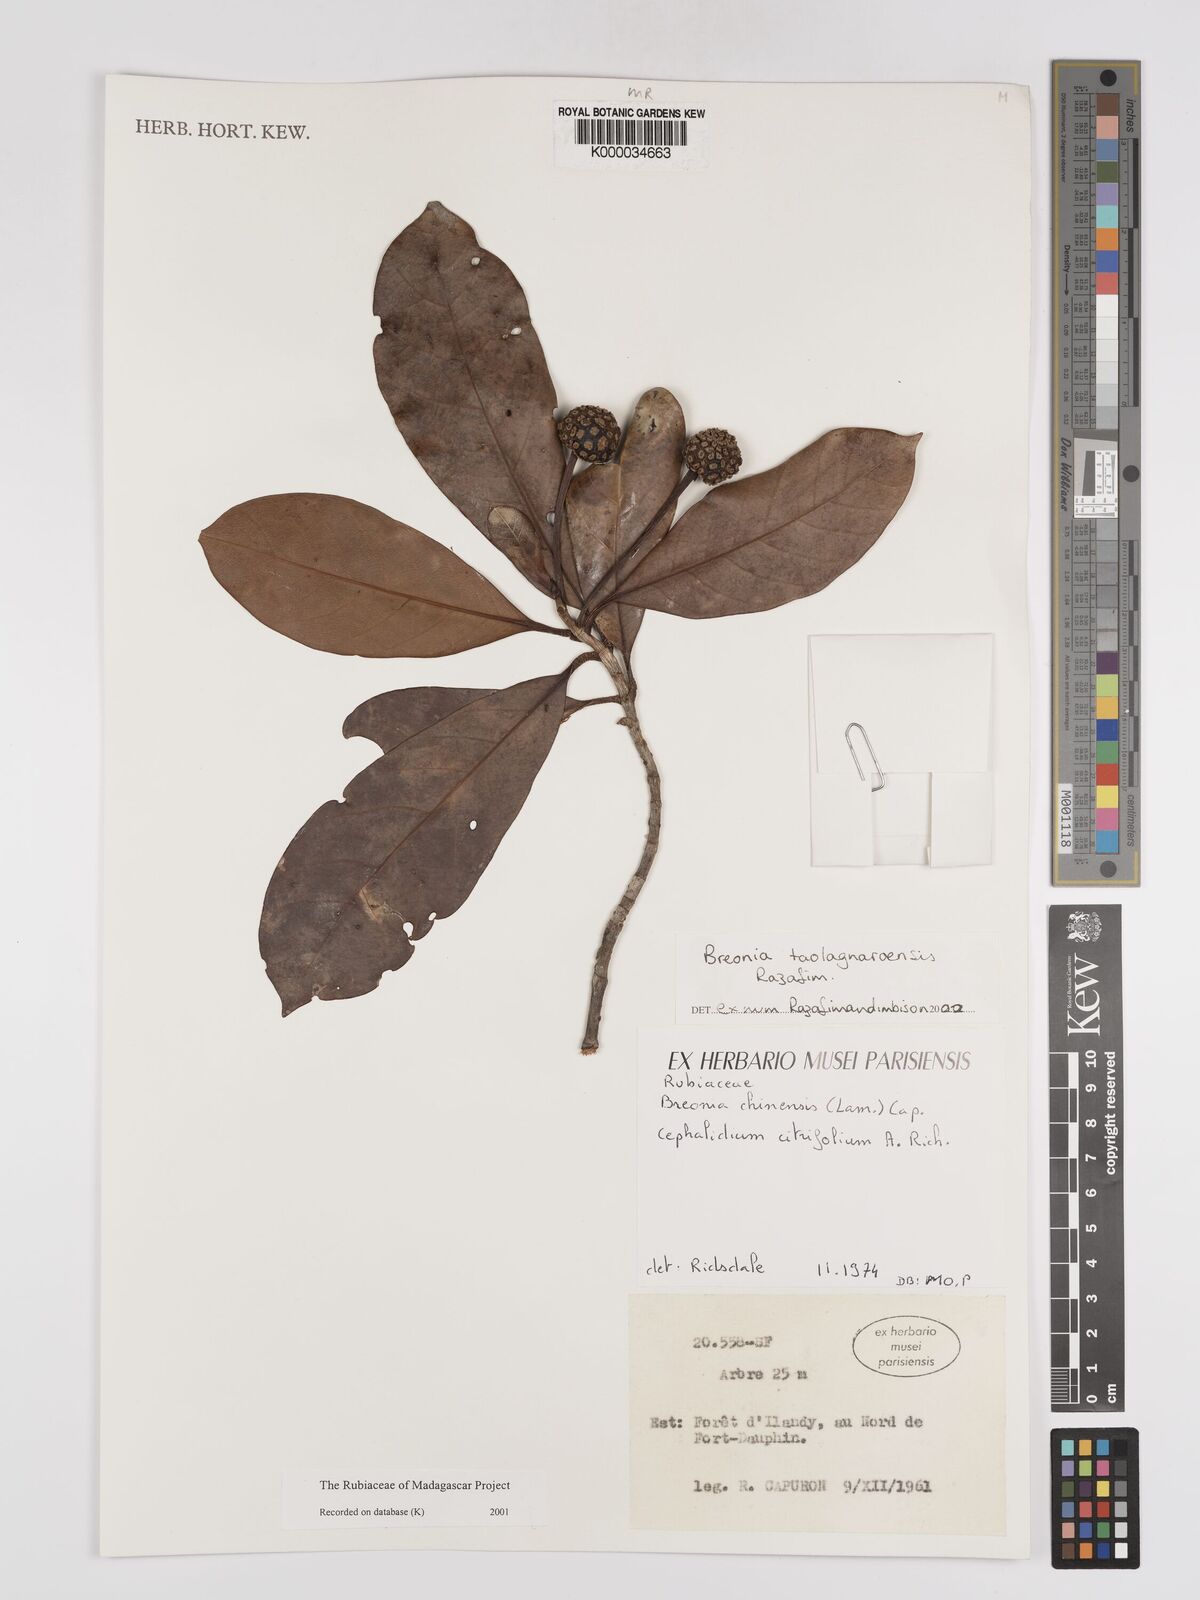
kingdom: Plantae
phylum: Tracheophyta
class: Magnoliopsida
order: Gentianales
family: Rubiaceae
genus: Breonia
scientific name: Breonia taolagnaroensis
